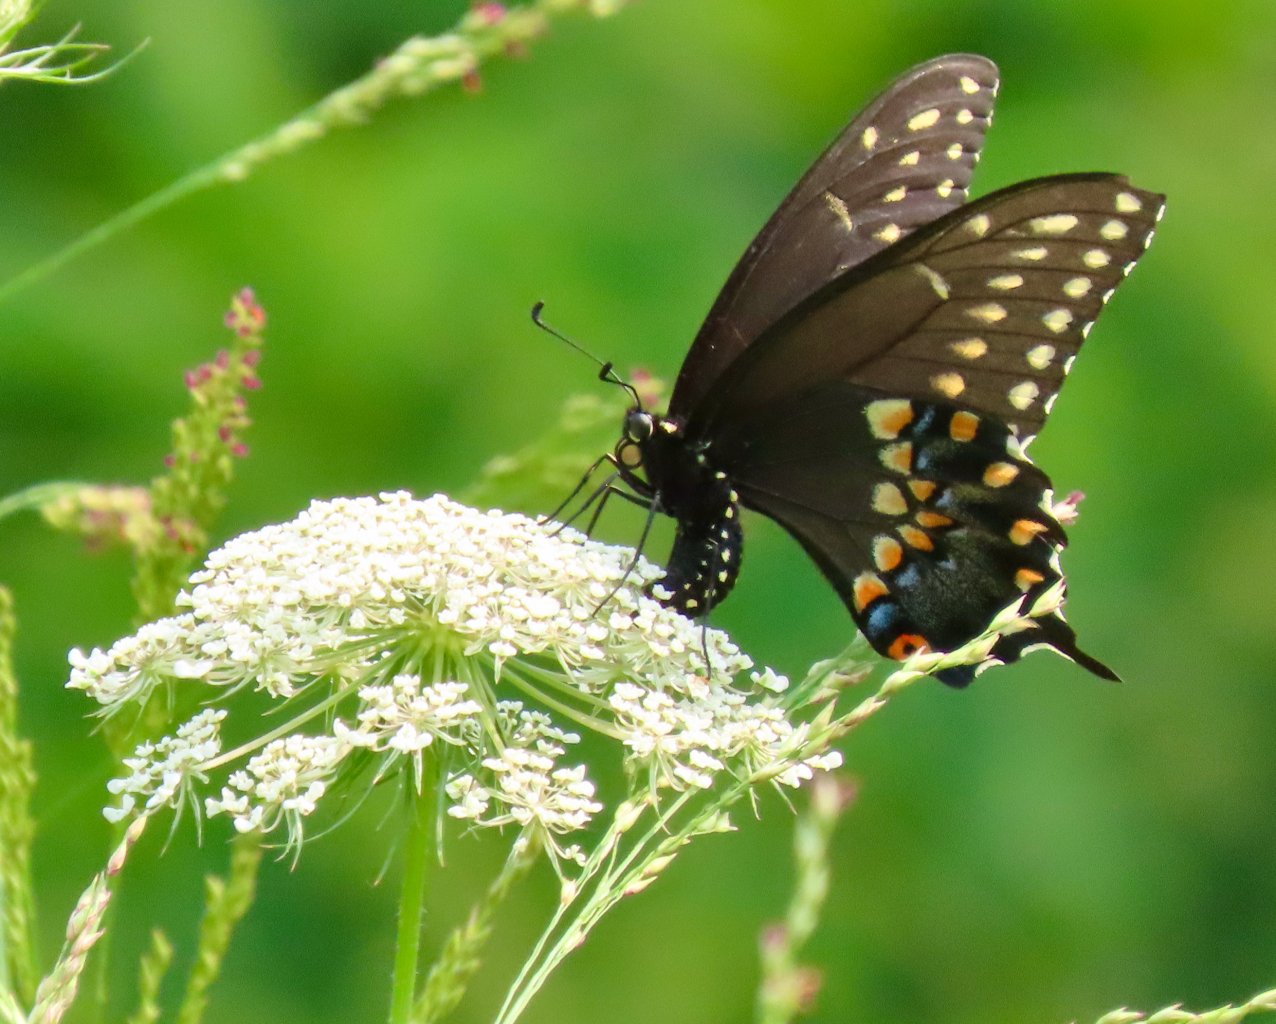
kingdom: Animalia
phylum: Arthropoda
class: Insecta
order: Lepidoptera
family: Papilionidae
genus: Papilio
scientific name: Papilio polyxenes
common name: Black Swallowtail
